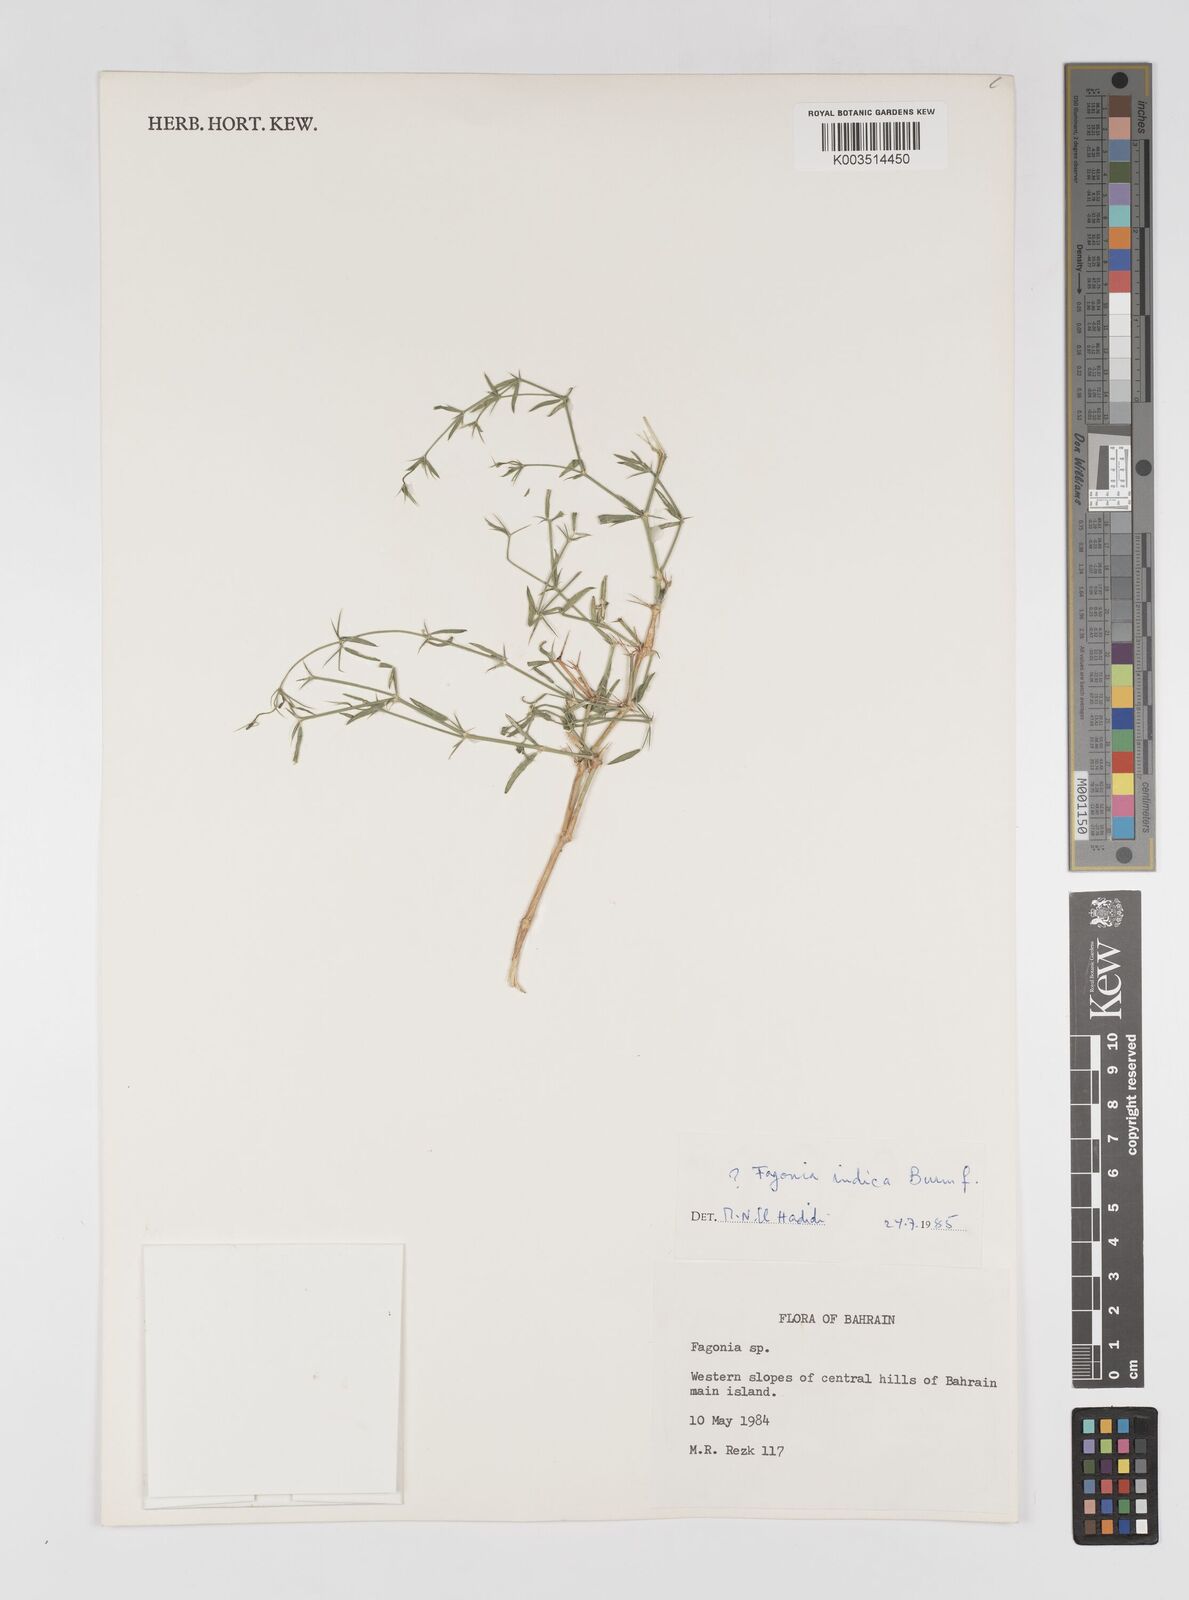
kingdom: Plantae
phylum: Tracheophyta
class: Magnoliopsida
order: Zygophyllales
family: Zygophyllaceae
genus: Fagonia
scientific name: Fagonia indica
